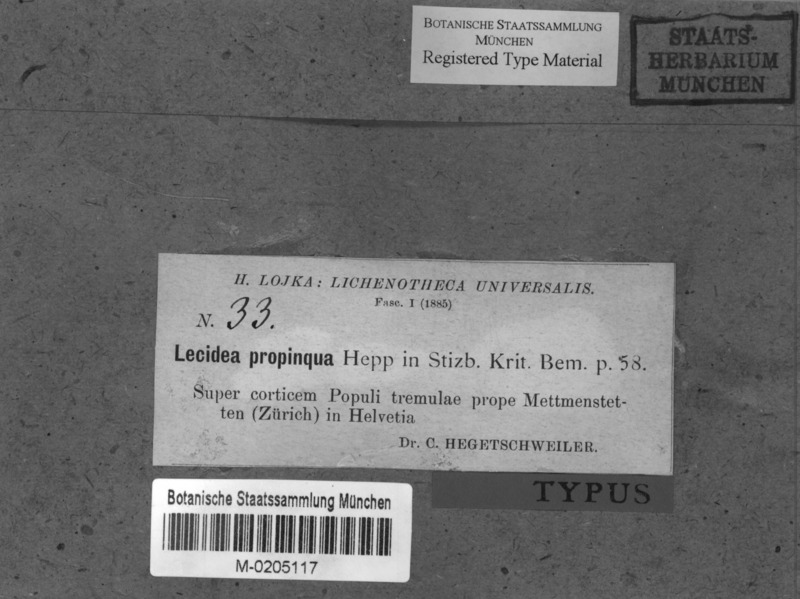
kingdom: Fungi
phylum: Ascomycota
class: Lecanoromycetes
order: Lecanorales
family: Ramalinaceae
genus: Bacidia
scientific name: Bacidia biatorina
